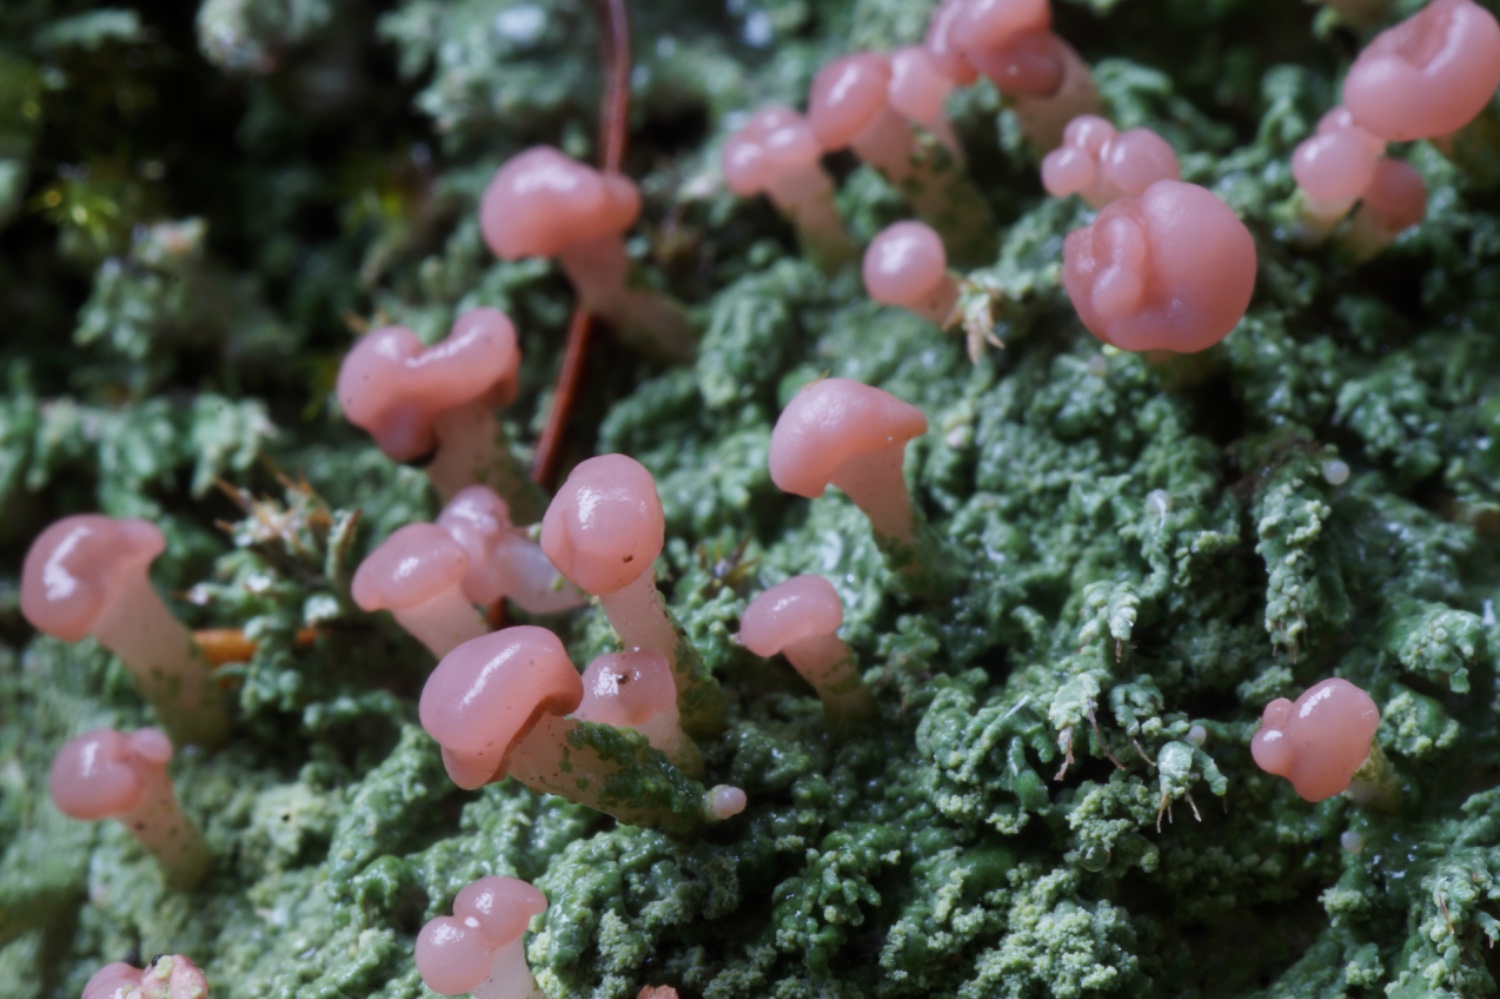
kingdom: Fungi
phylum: Ascomycota
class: Lecanoromycetes
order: Baeomycetales
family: Baeomycetaceae
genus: Baeomyces
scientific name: Baeomyces rufus
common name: rødbrun svampelav
